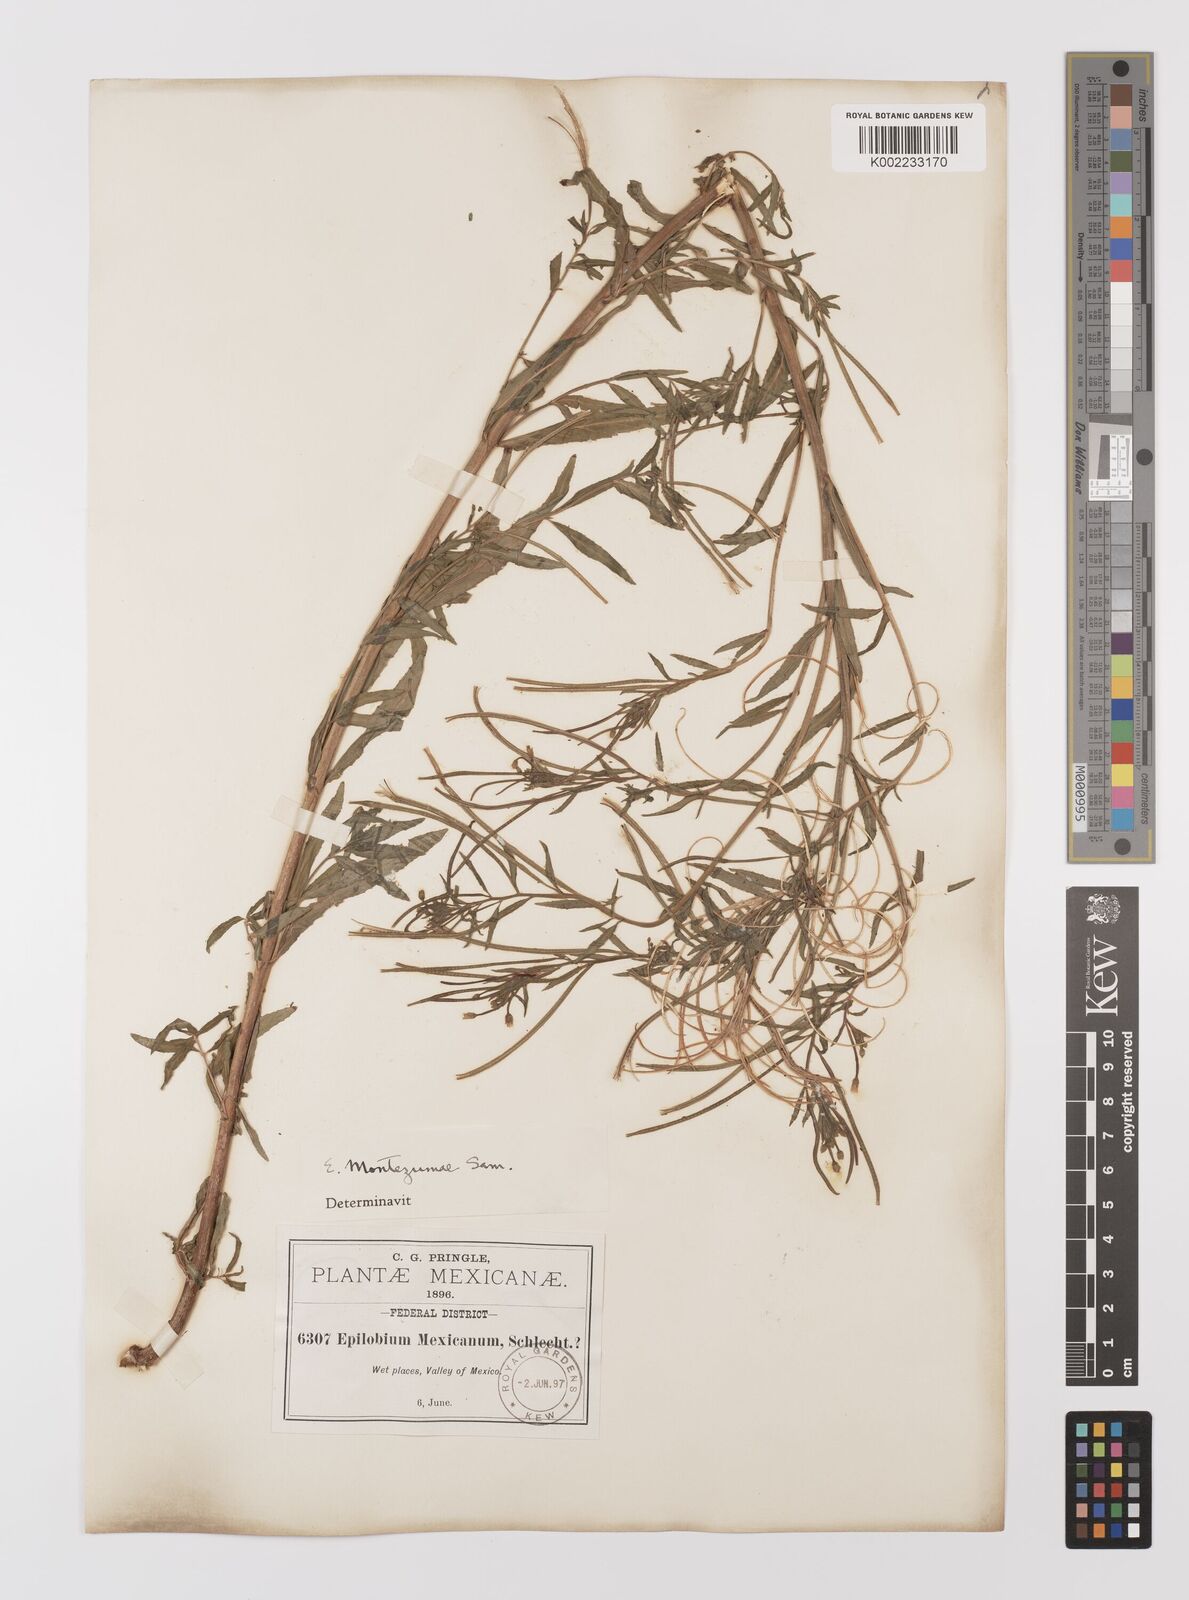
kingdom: Plantae
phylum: Tracheophyta
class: Magnoliopsida
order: Myrtales
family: Onagraceae
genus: Epilobium
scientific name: Epilobium
